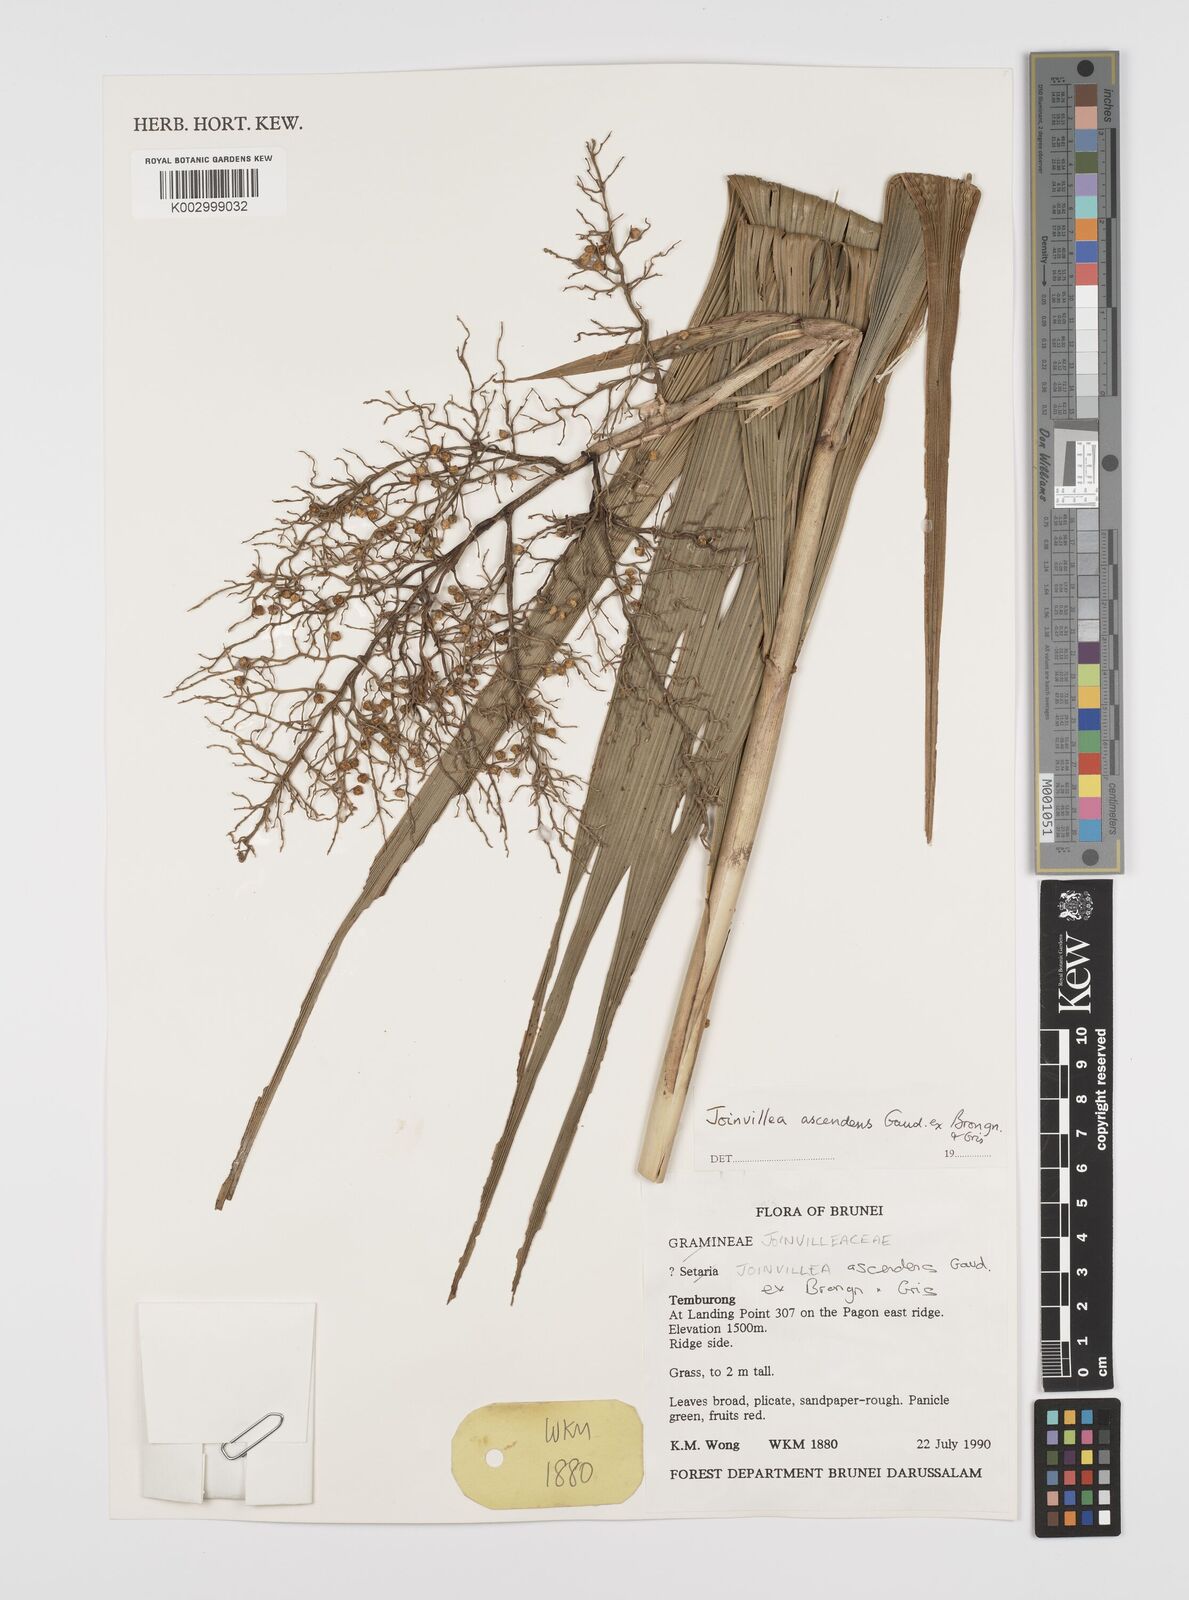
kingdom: Plantae
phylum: Tracheophyta
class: Liliopsida
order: Poales
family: Joinvilleaceae
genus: Joinvillea
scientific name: Joinvillea borneensis
